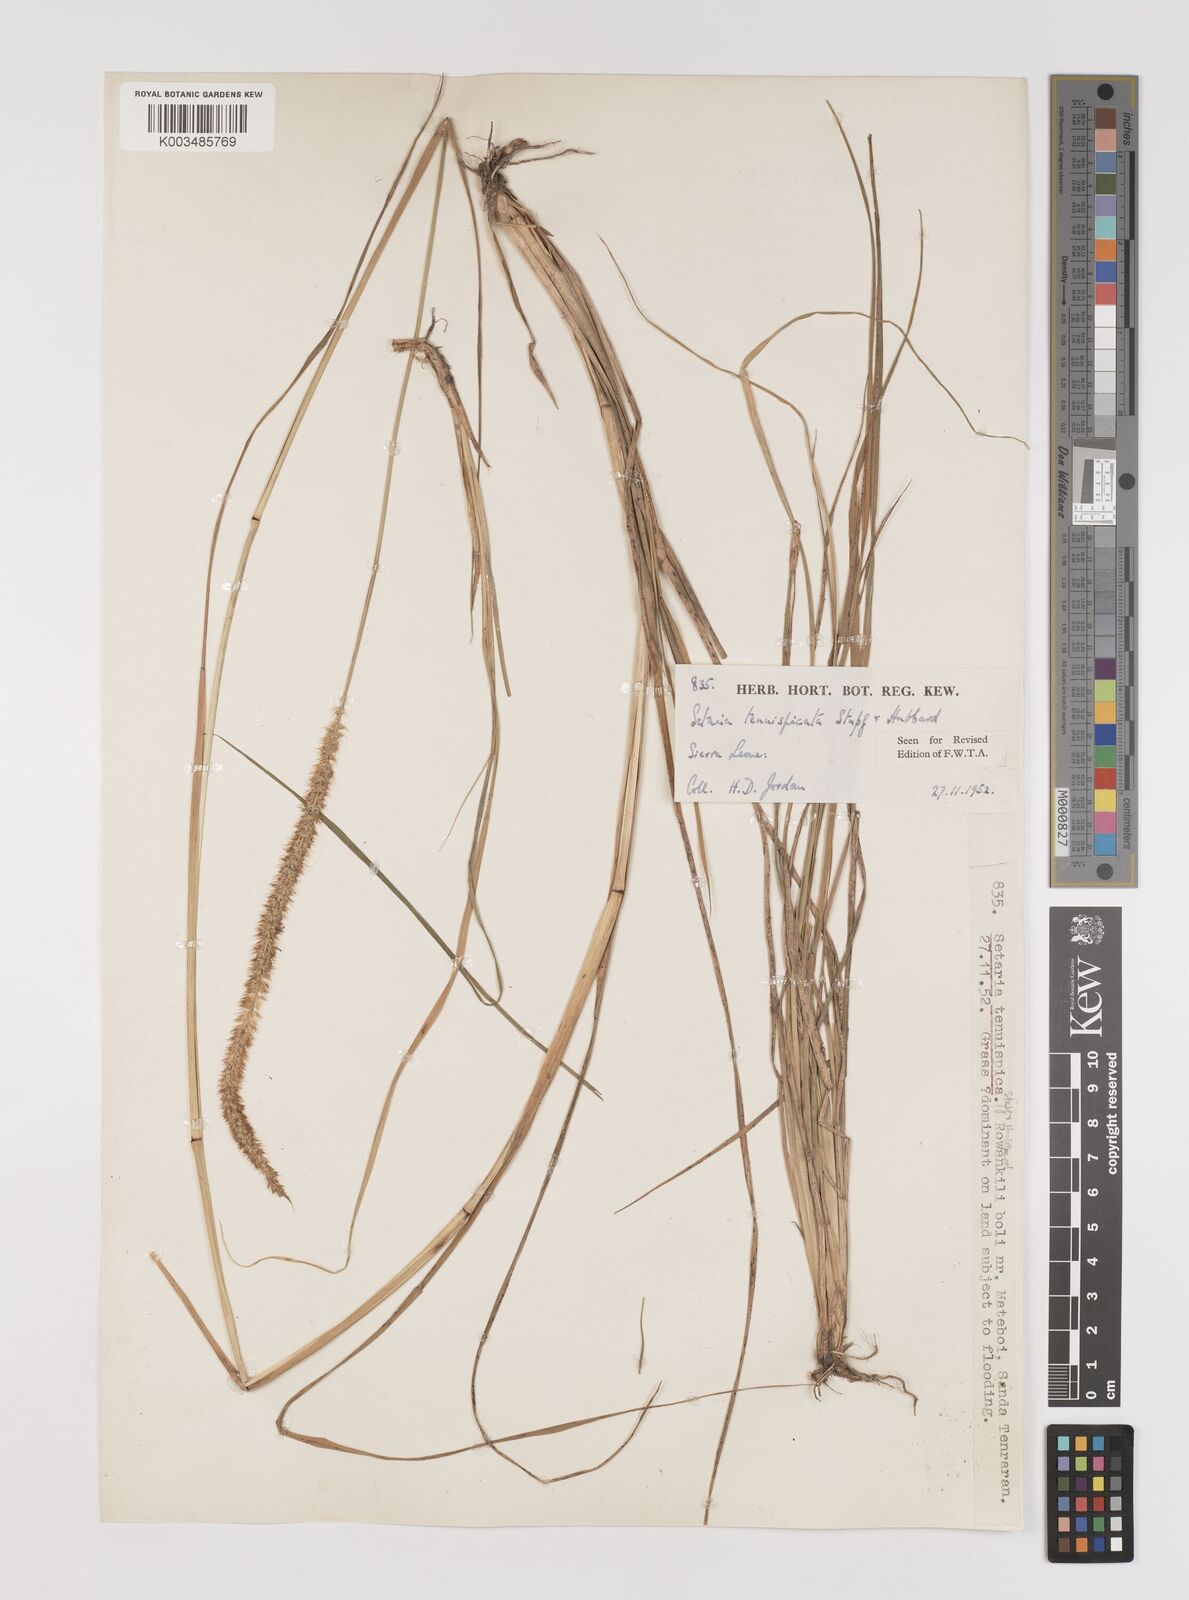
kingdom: Plantae
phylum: Tracheophyta
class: Liliopsida
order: Poales
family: Poaceae
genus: Setaria
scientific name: Setaria sphacelata
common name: African bristlegrass
